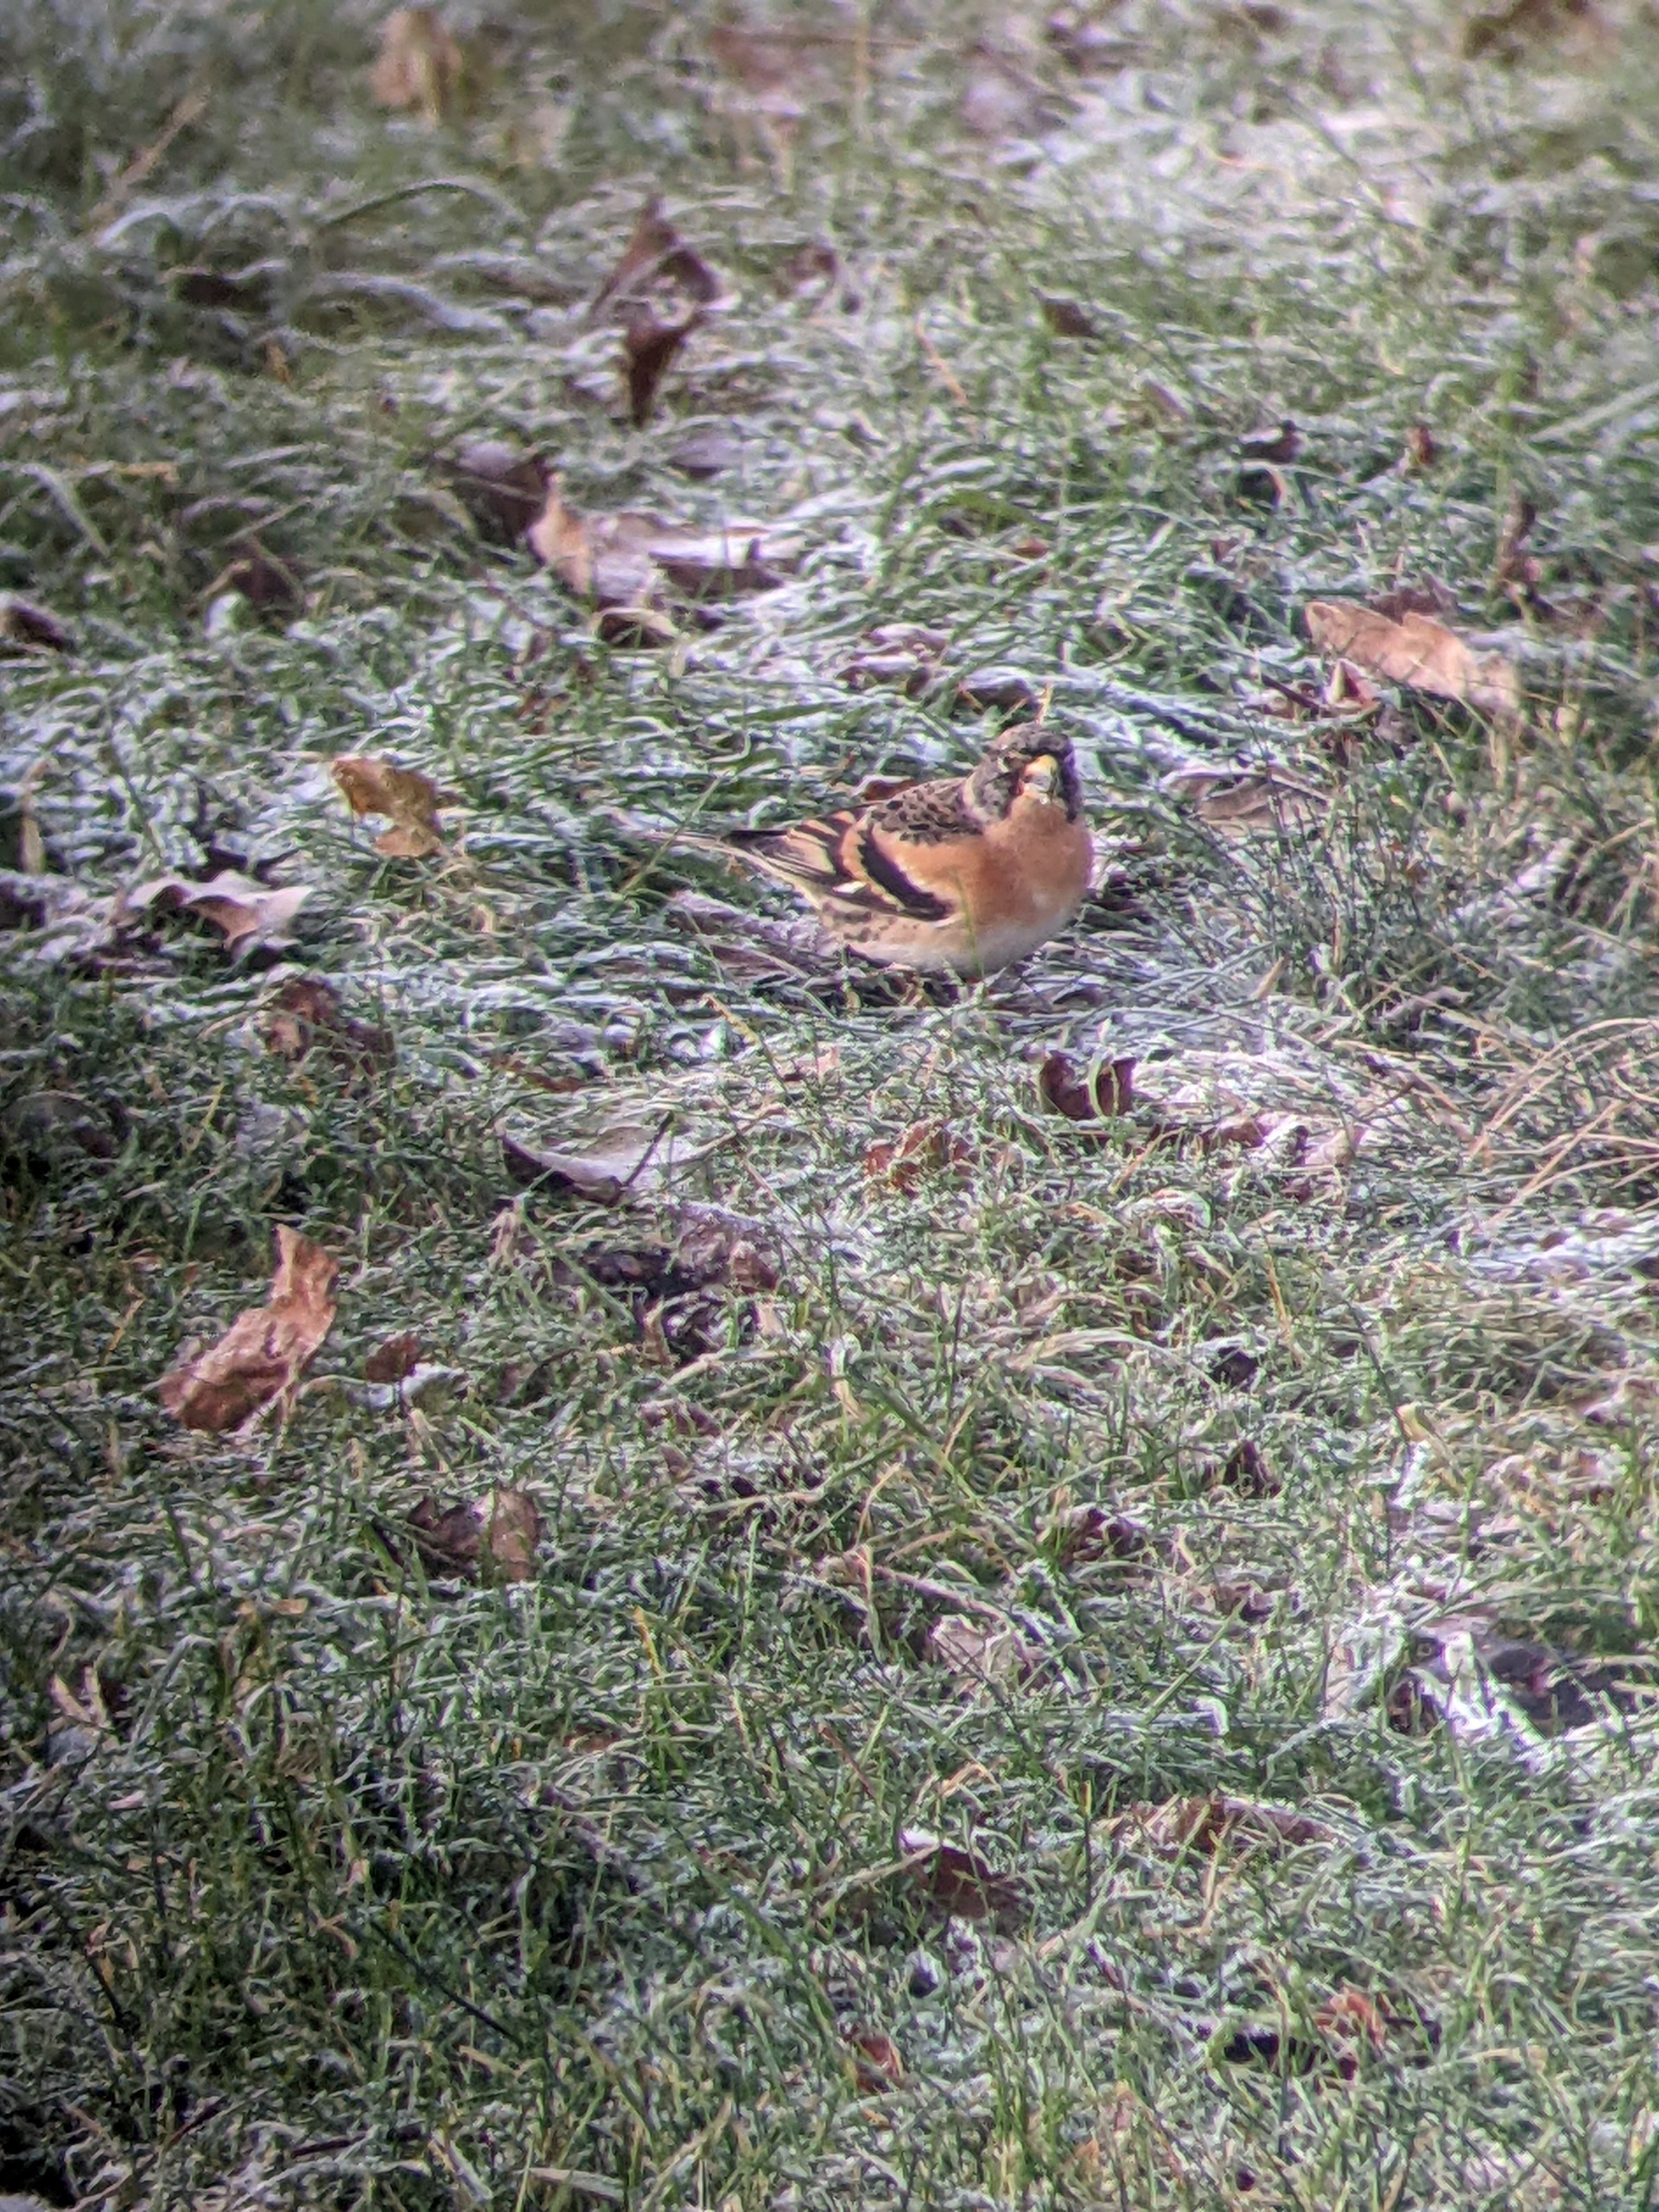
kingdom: Animalia
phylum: Chordata
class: Aves
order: Passeriformes
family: Fringillidae
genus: Fringilla
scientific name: Fringilla montifringilla
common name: Kvækerfinke
